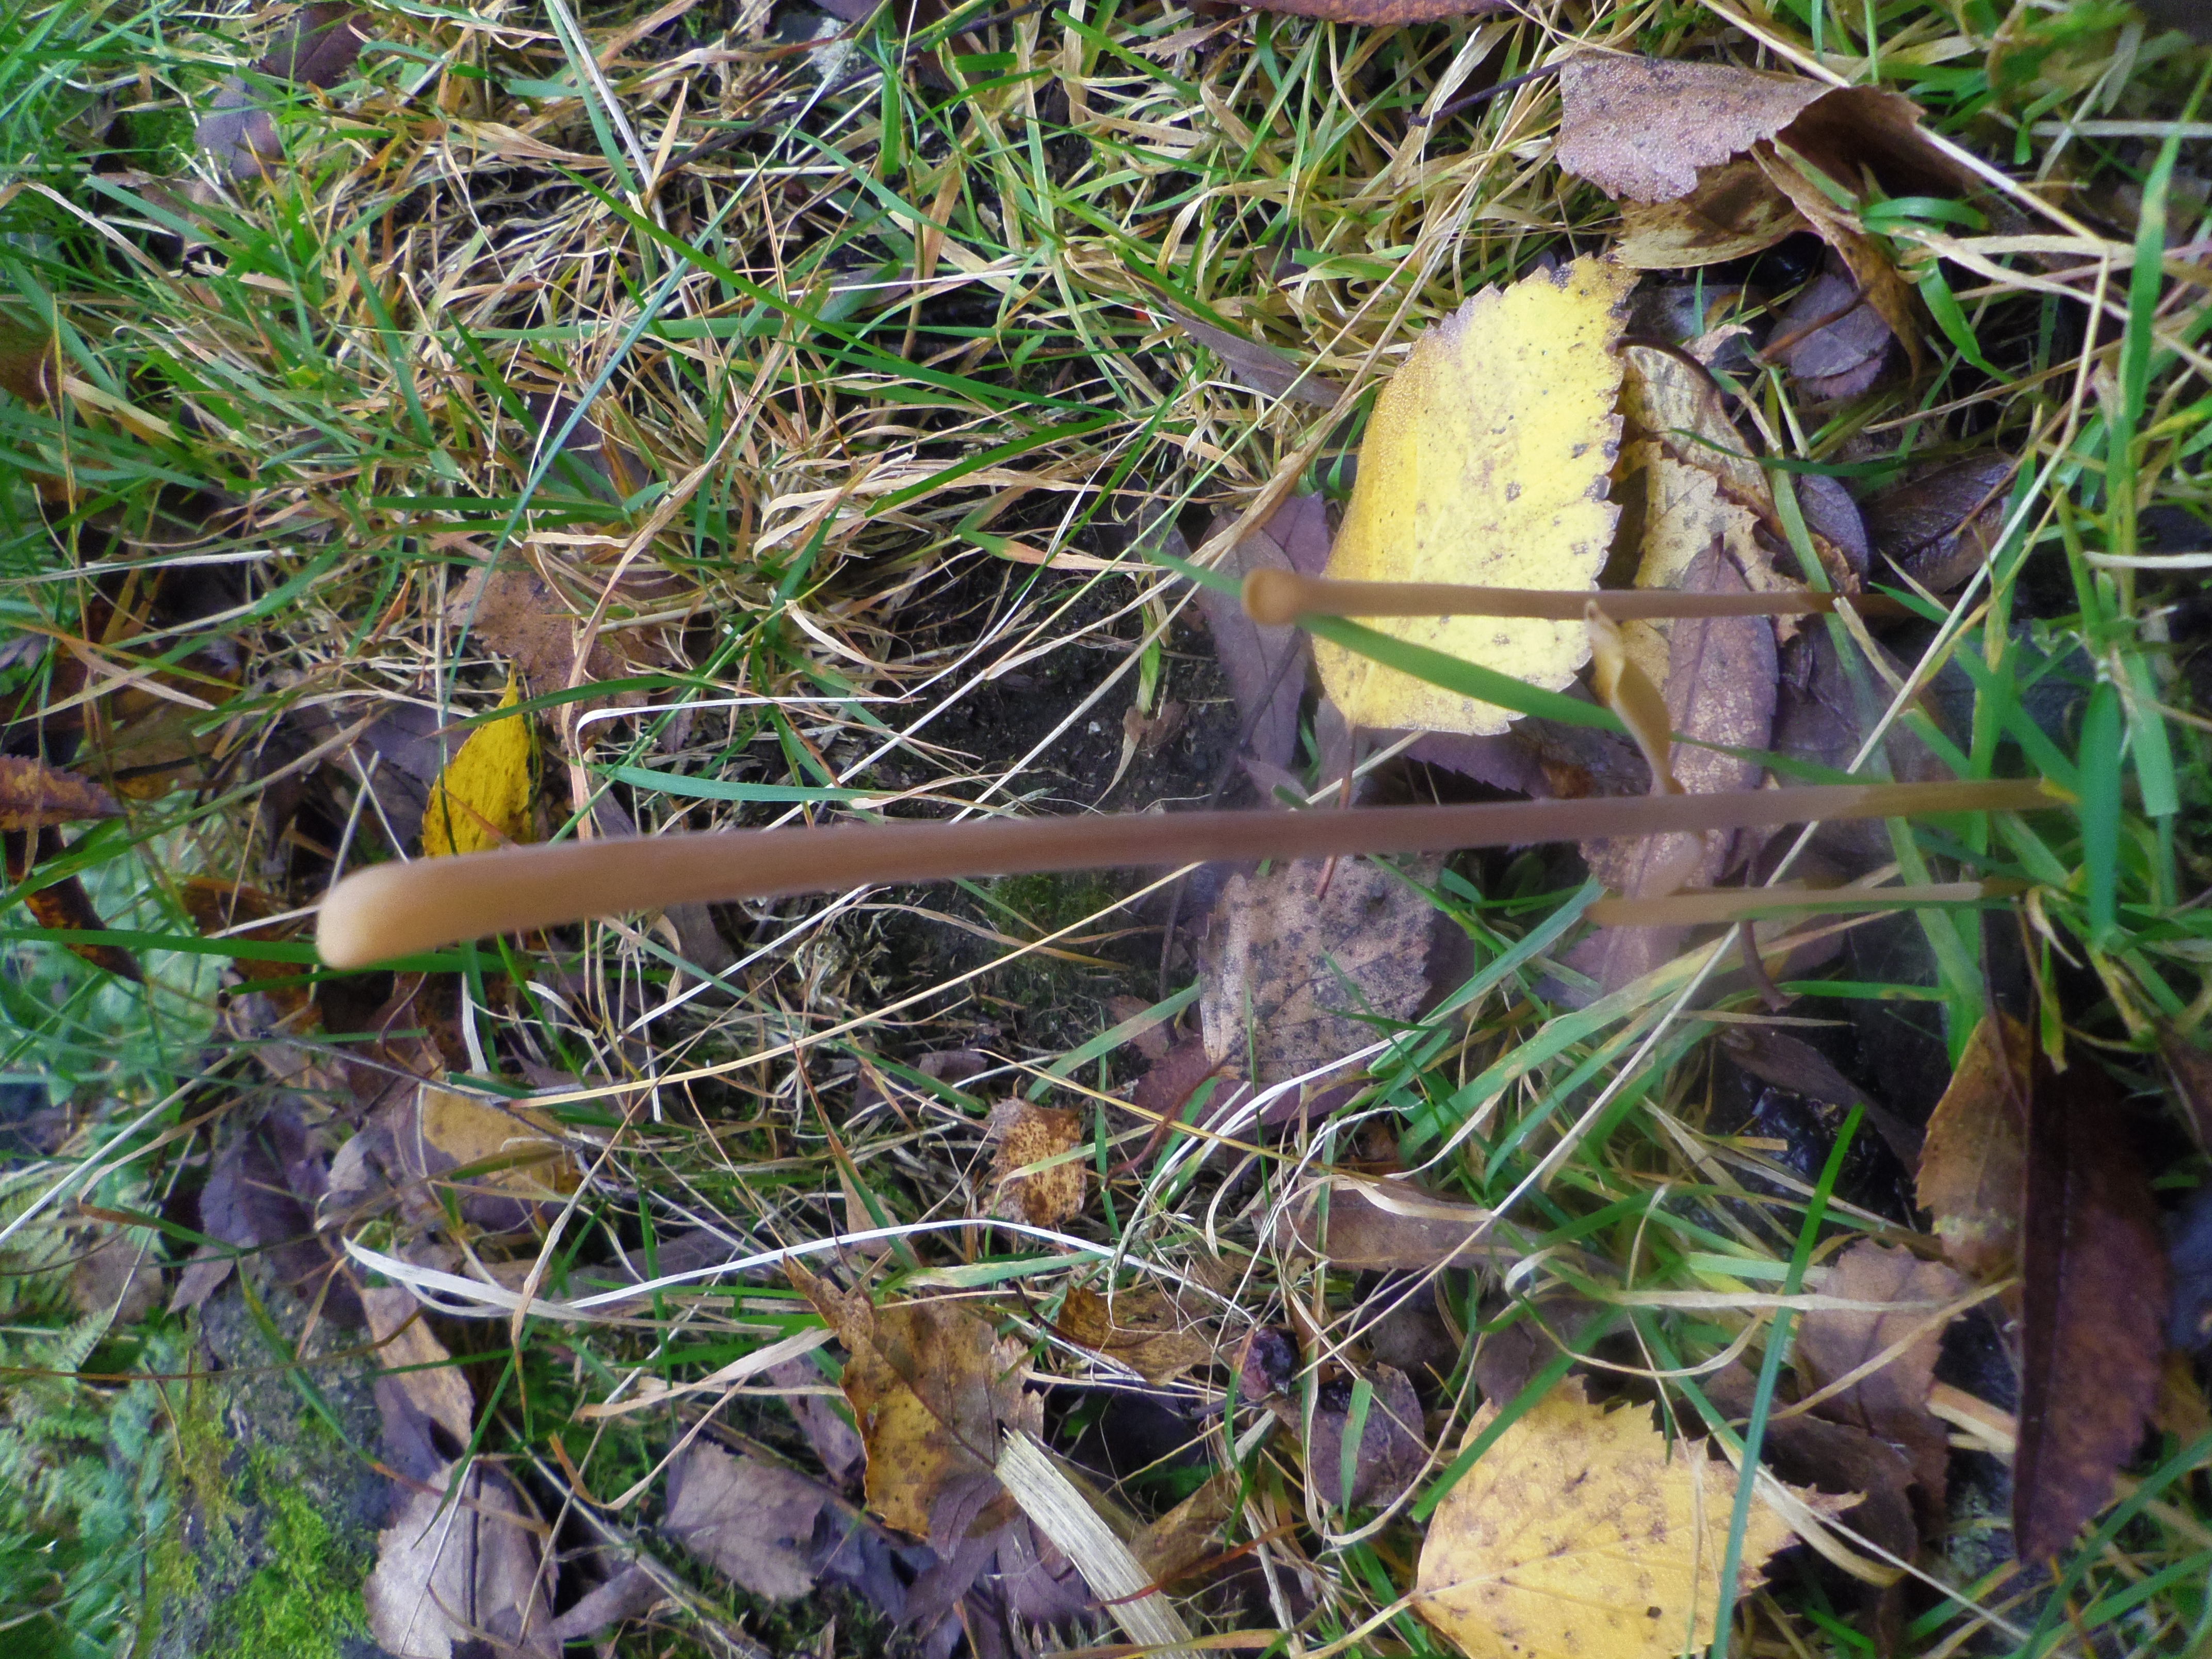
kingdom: Fungi
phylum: Basidiomycota
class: Agaricomycetes
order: Agaricales
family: Typhulaceae
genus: Typhula
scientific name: Typhula fistulosa
